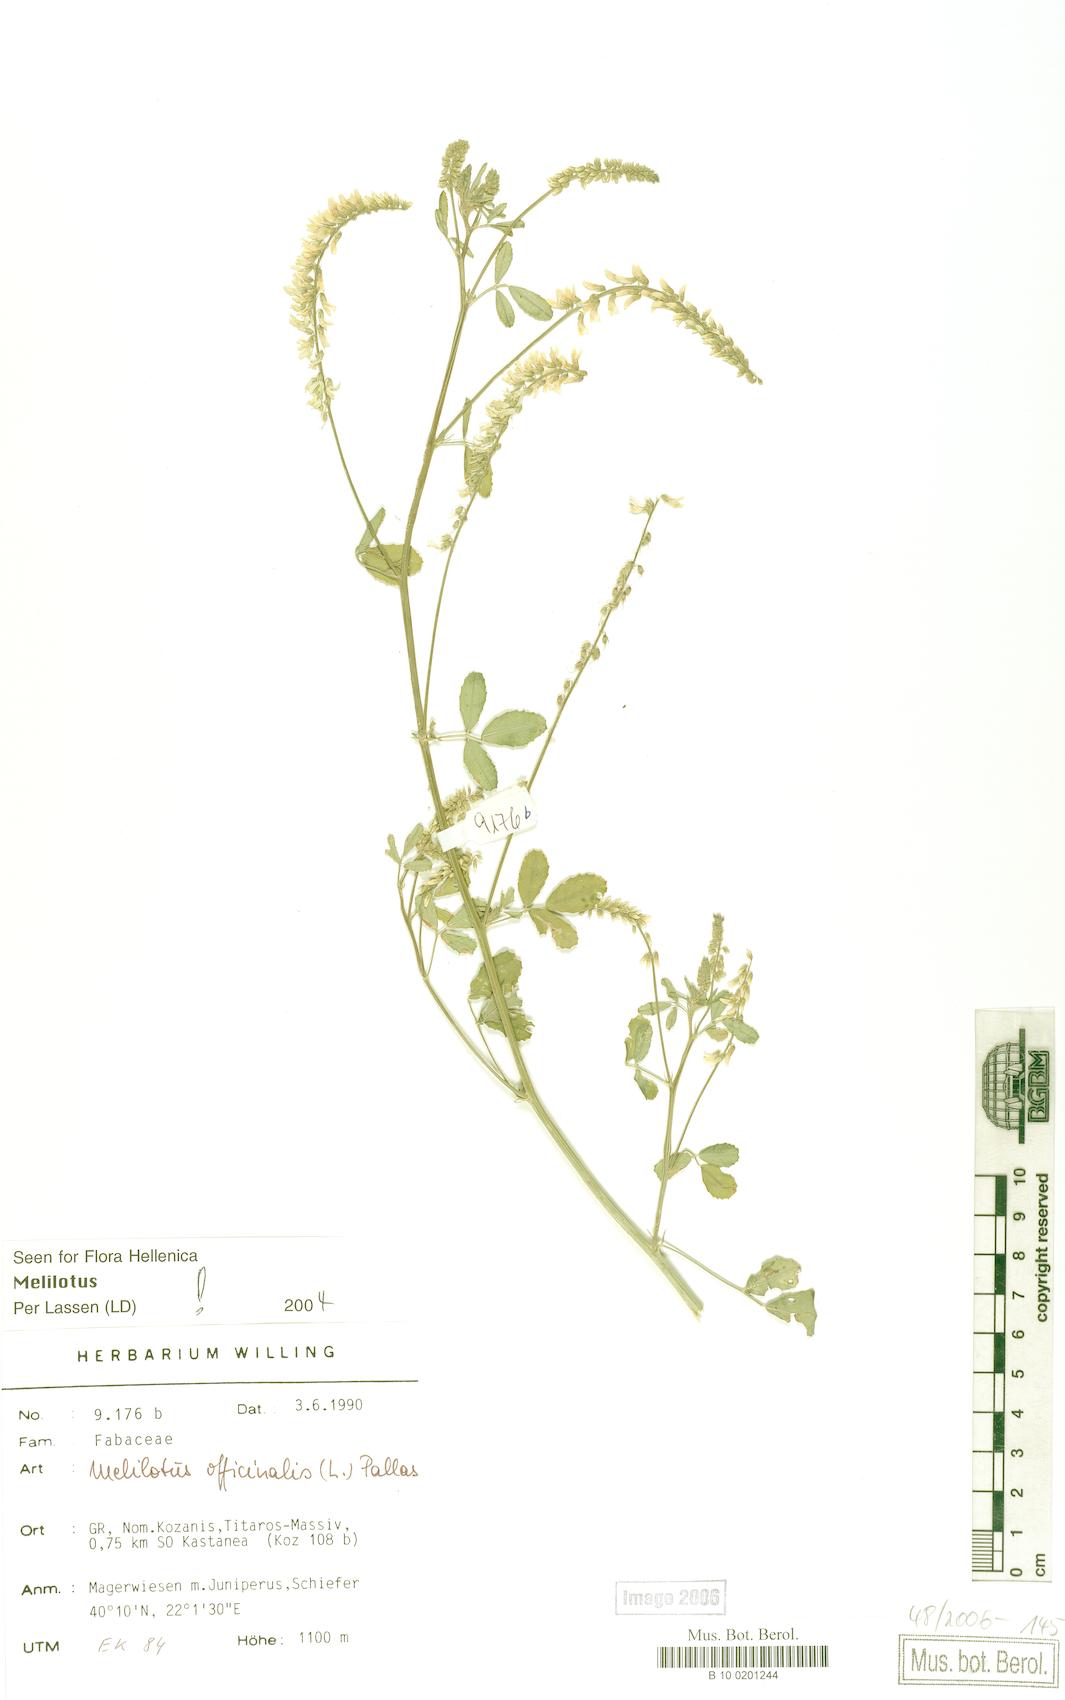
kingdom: Plantae
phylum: Tracheophyta
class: Magnoliopsida
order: Fabales
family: Fabaceae
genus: Melilotus
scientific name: Melilotus officinalis
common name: Sweetclover
